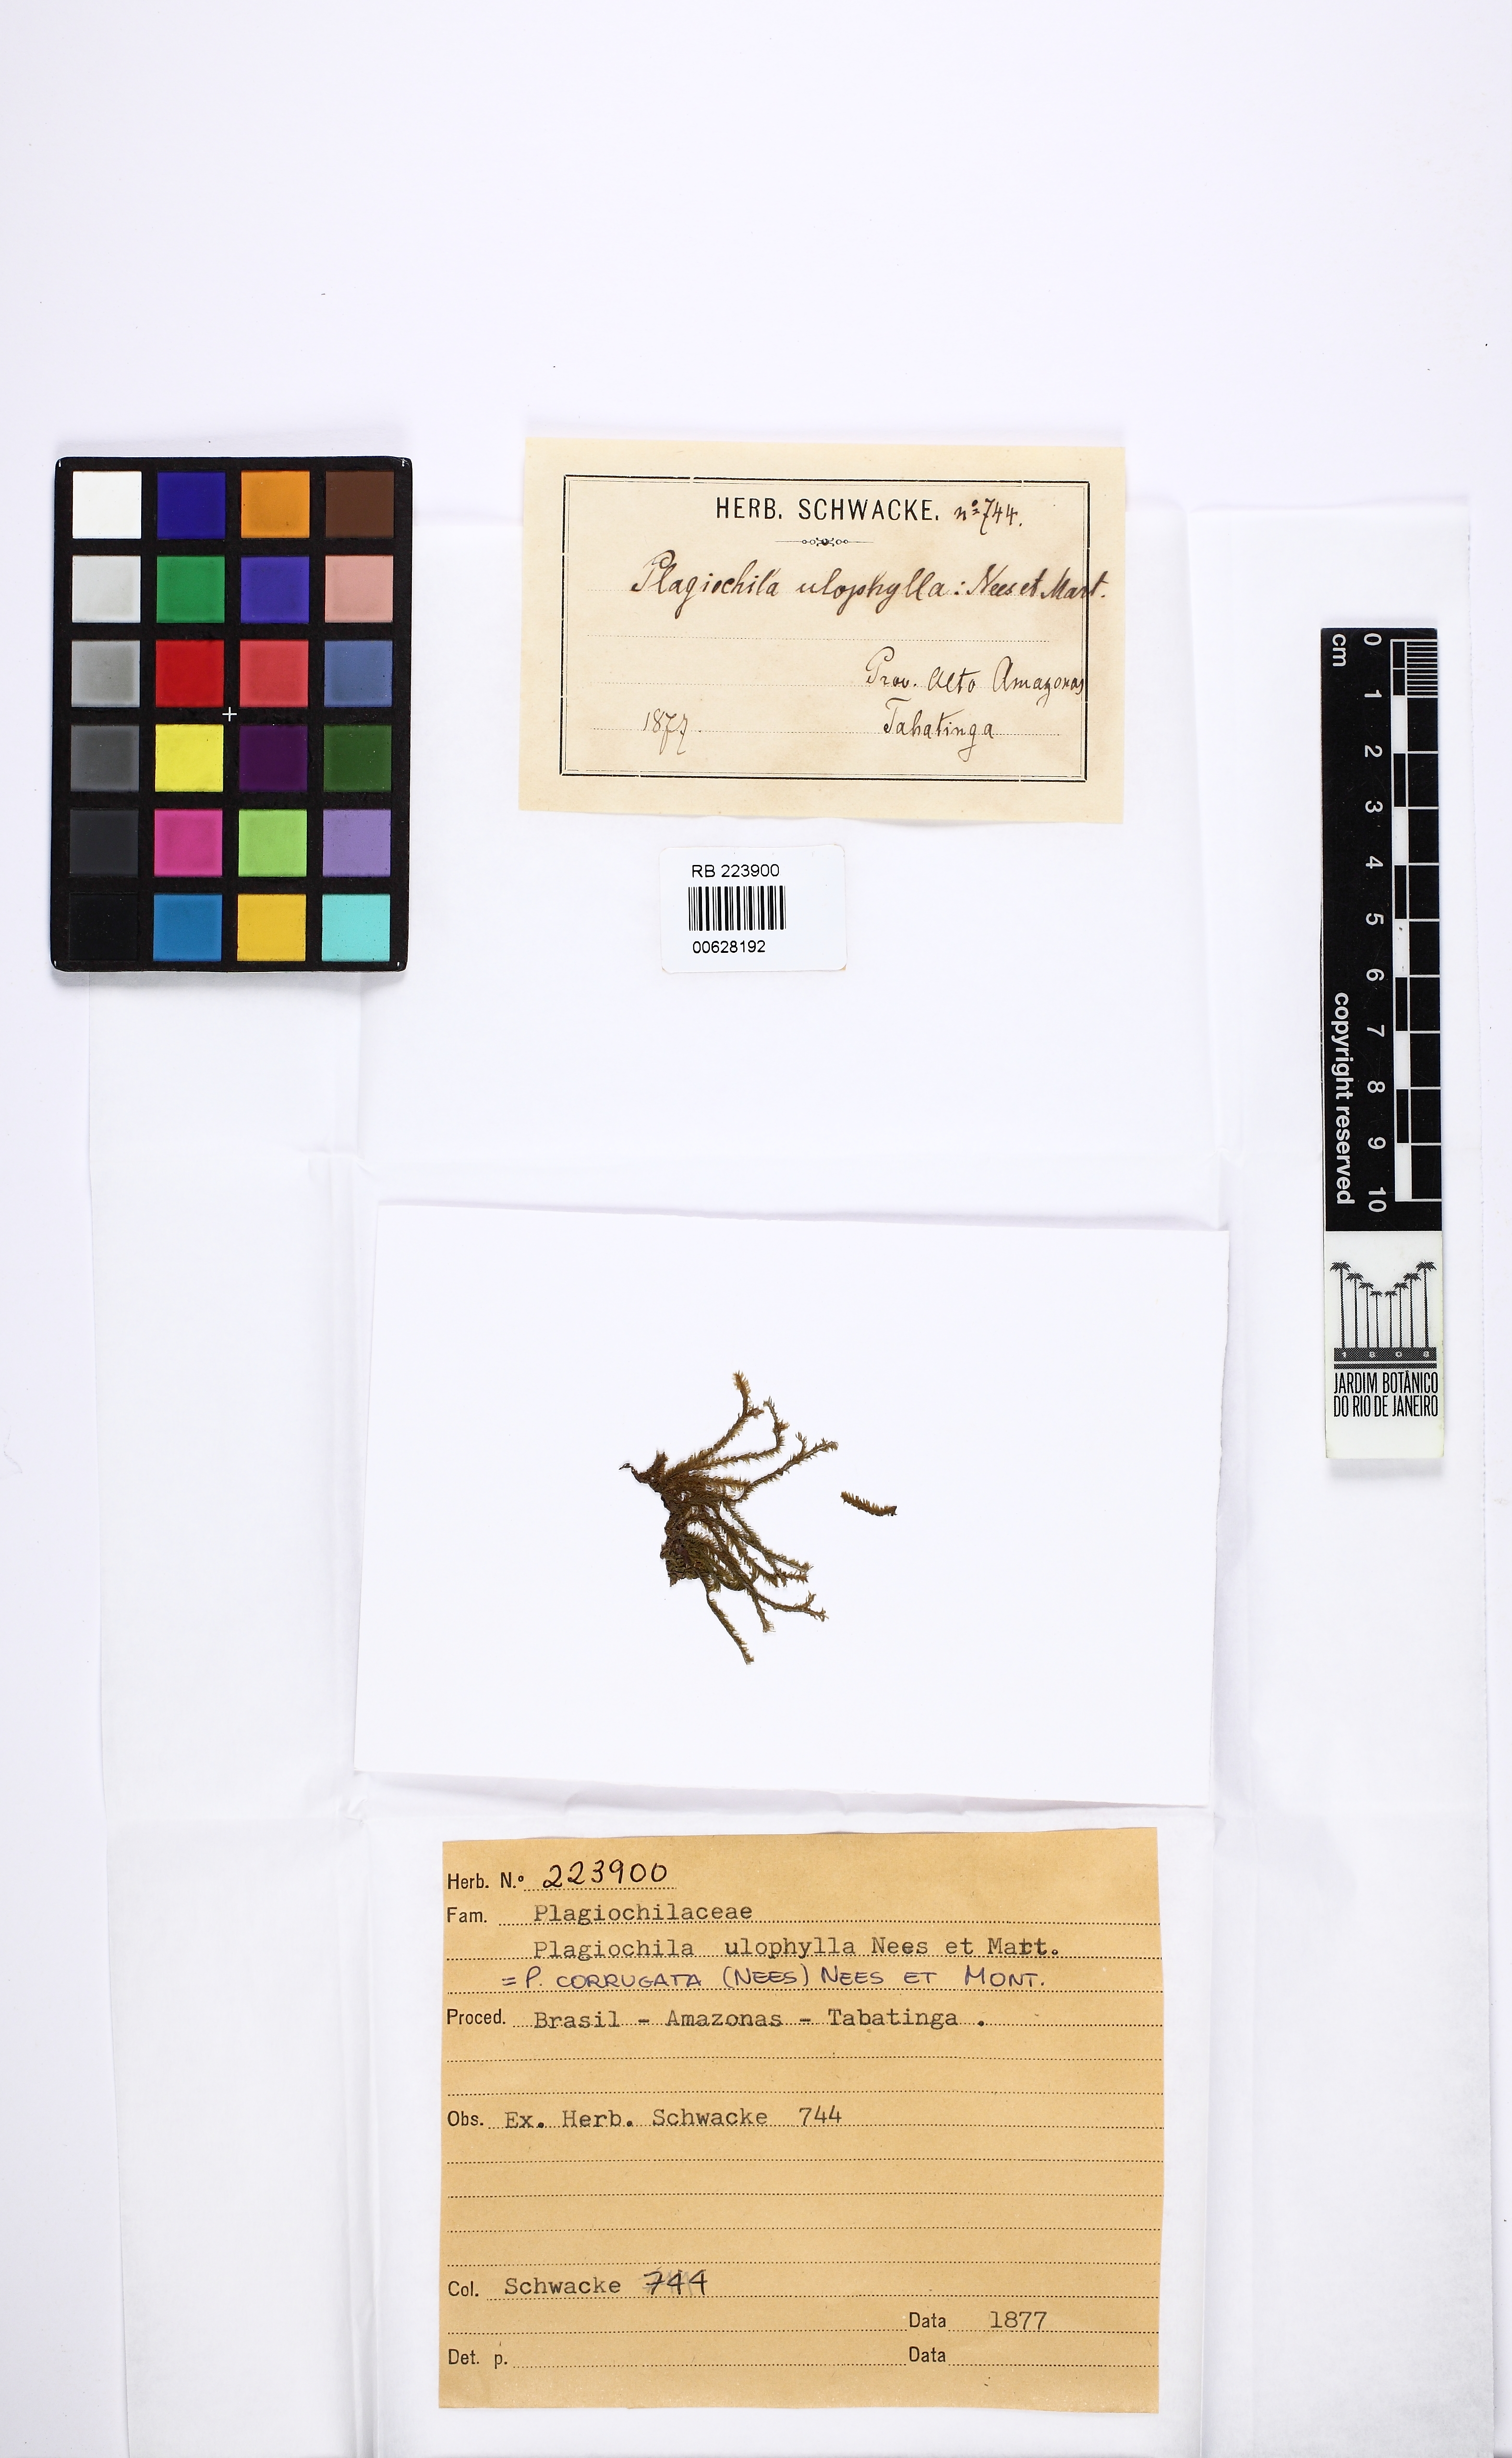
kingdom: Plantae
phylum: Marchantiophyta
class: Jungermanniopsida
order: Jungermanniales
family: Plagiochilaceae
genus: Plagiochila
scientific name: Plagiochila corrugata
